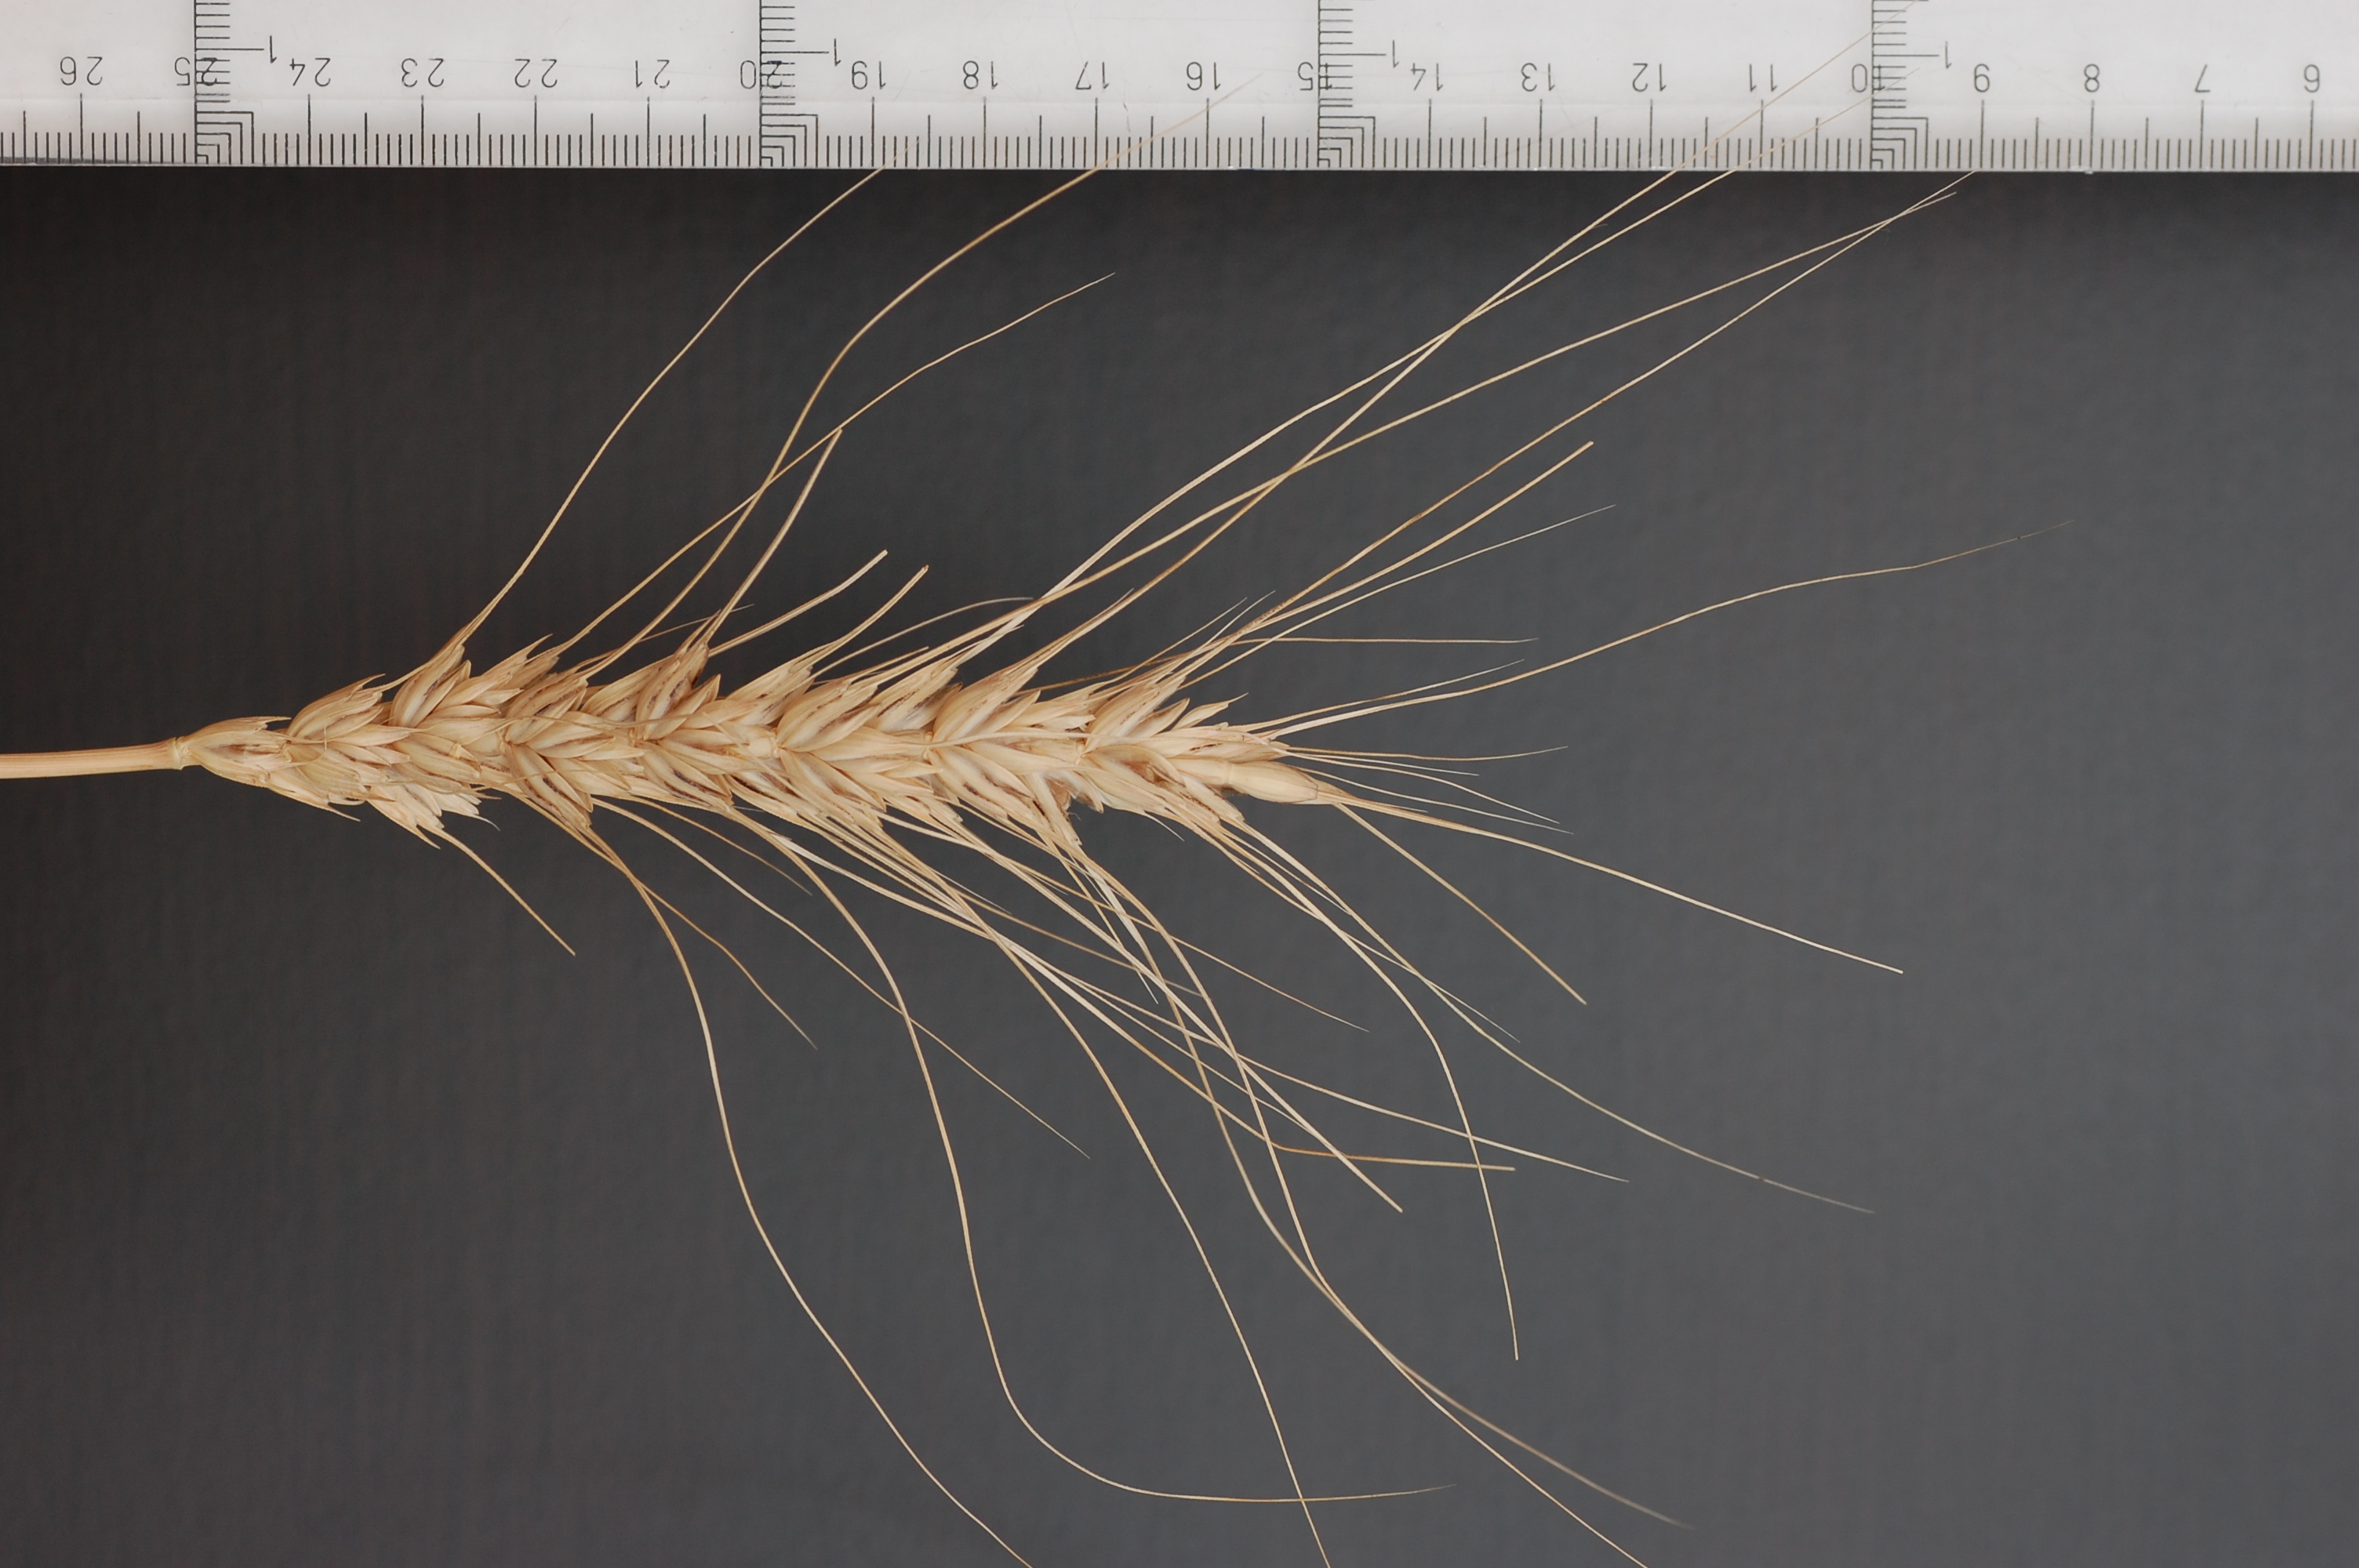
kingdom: Plantae
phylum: Tracheophyta
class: Liliopsida
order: Poales
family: Poaceae
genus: Triticum
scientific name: Triticum aestivum
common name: Common wheat
